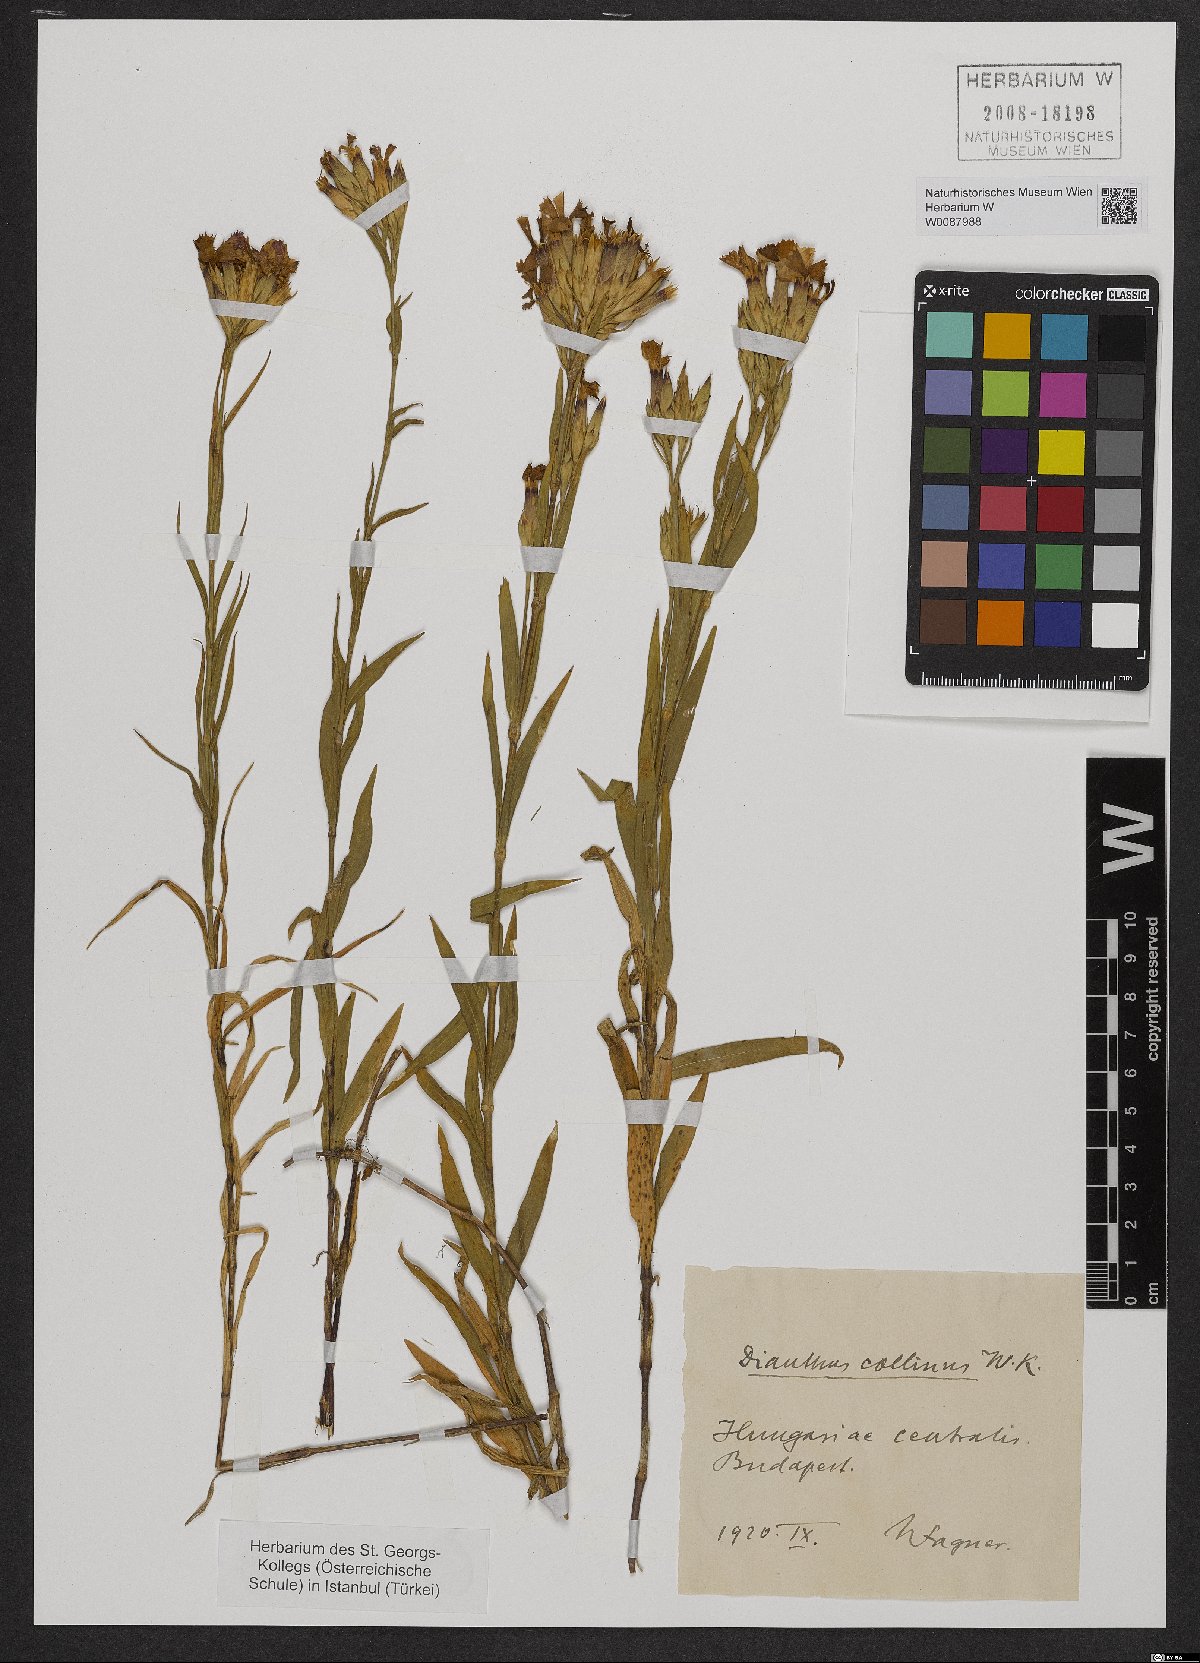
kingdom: Plantae
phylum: Tracheophyta
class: Magnoliopsida
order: Caryophyllales
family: Caryophyllaceae
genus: Dianthus
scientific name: Dianthus collinus
